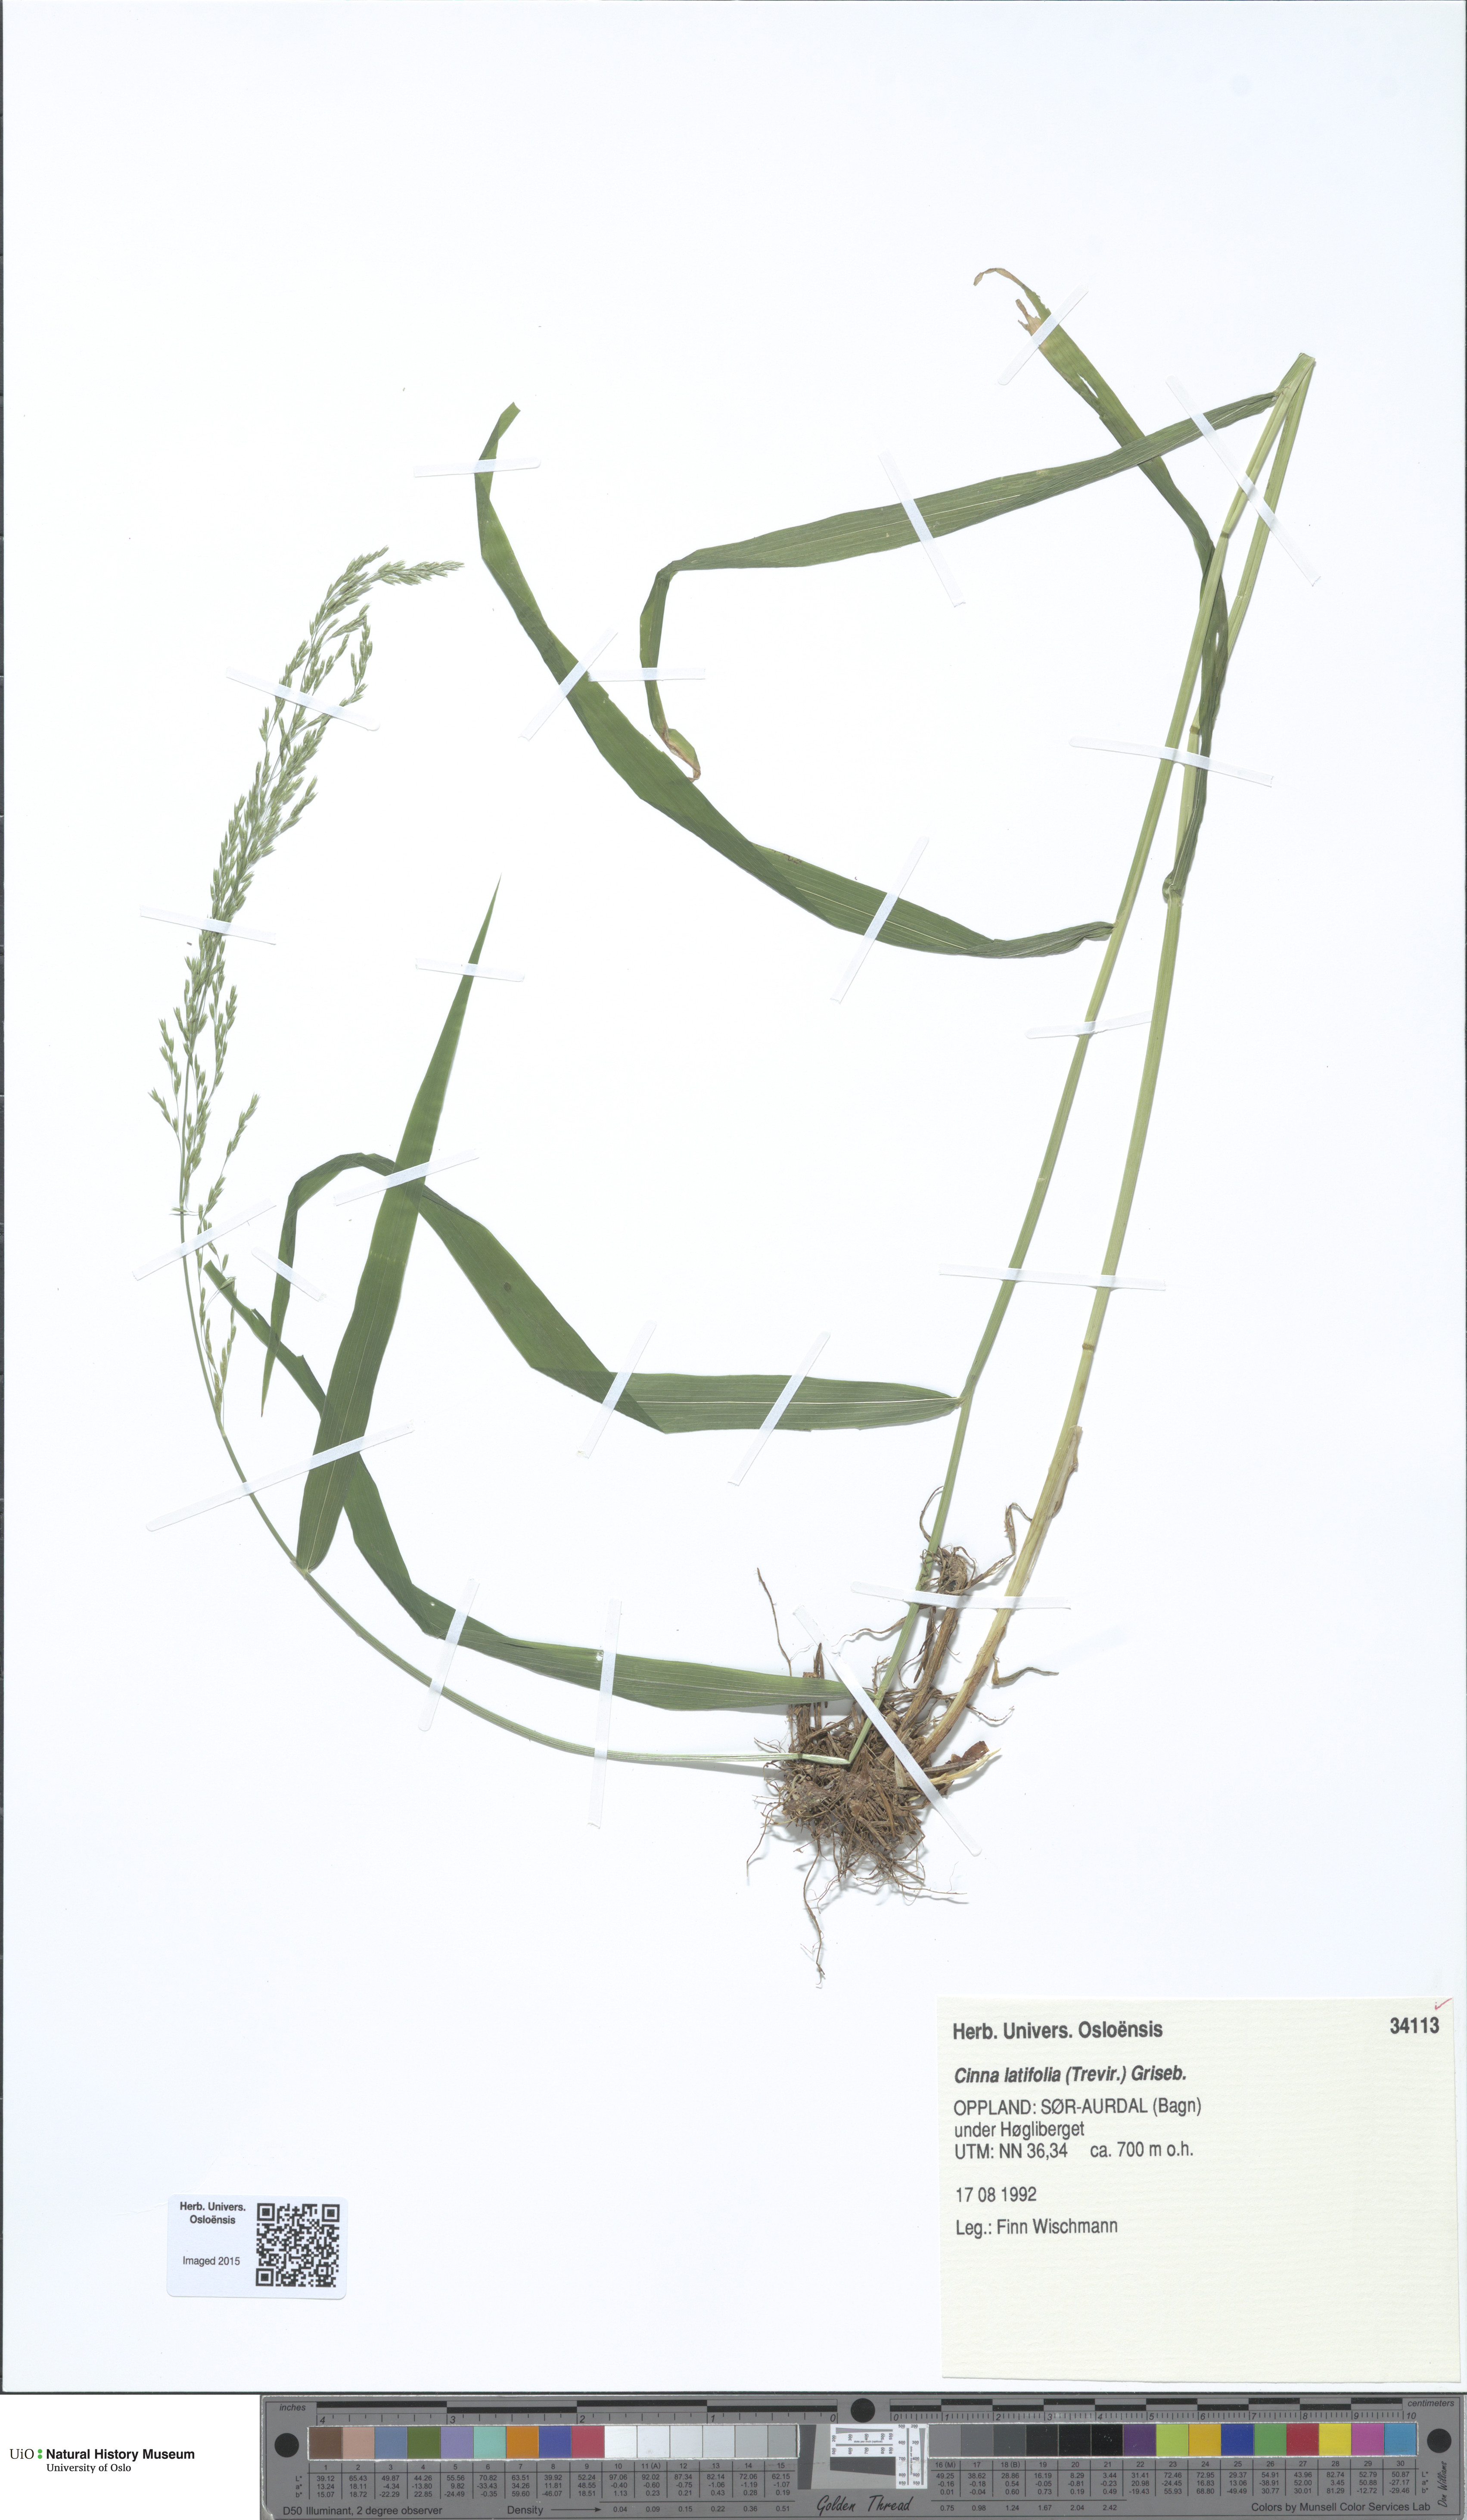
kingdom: Plantae
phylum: Tracheophyta
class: Liliopsida
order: Poales
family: Poaceae
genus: Cinna
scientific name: Cinna latifolia
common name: Drooping woodreed
